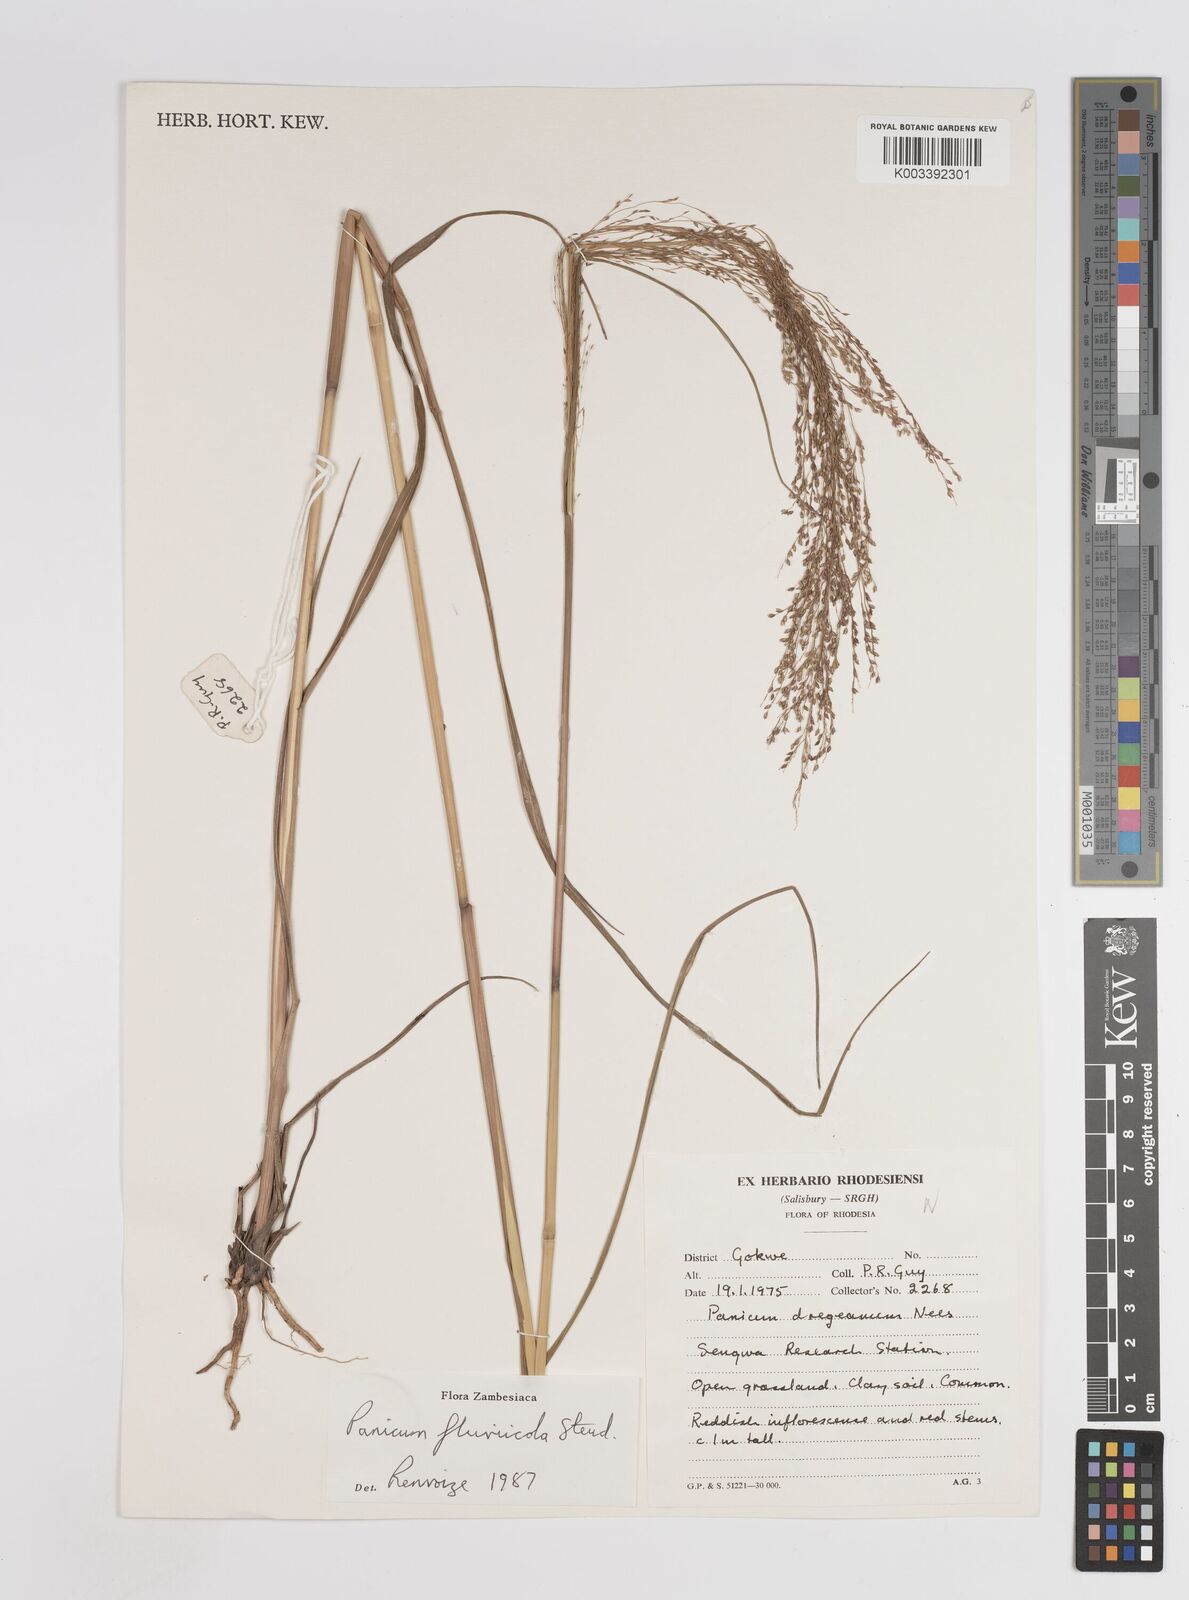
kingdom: Plantae
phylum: Tracheophyta
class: Liliopsida
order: Poales
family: Poaceae
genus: Panicum
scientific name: Panicum fluviicola
